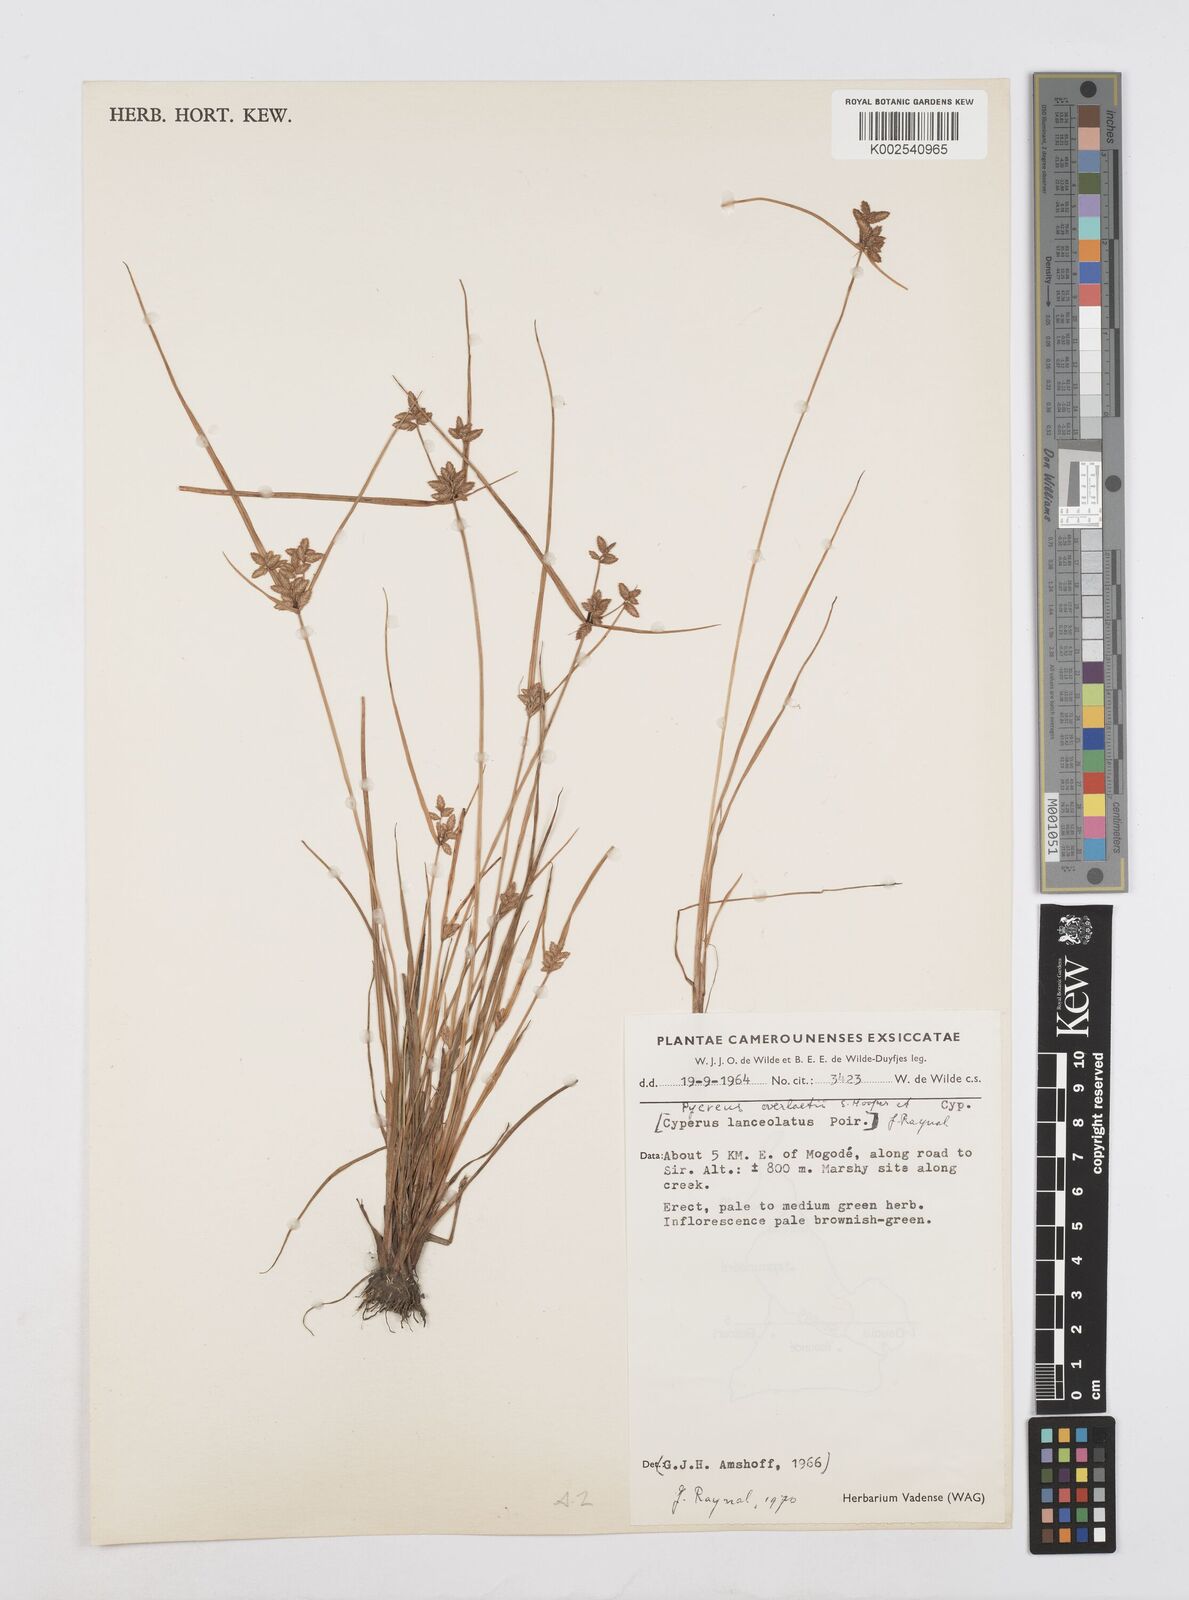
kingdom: Plantae
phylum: Tracheophyta
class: Liliopsida
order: Poales
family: Cyperaceae
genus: Cyperus
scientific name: Cyperus unioloides
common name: Uniola flatsedge
